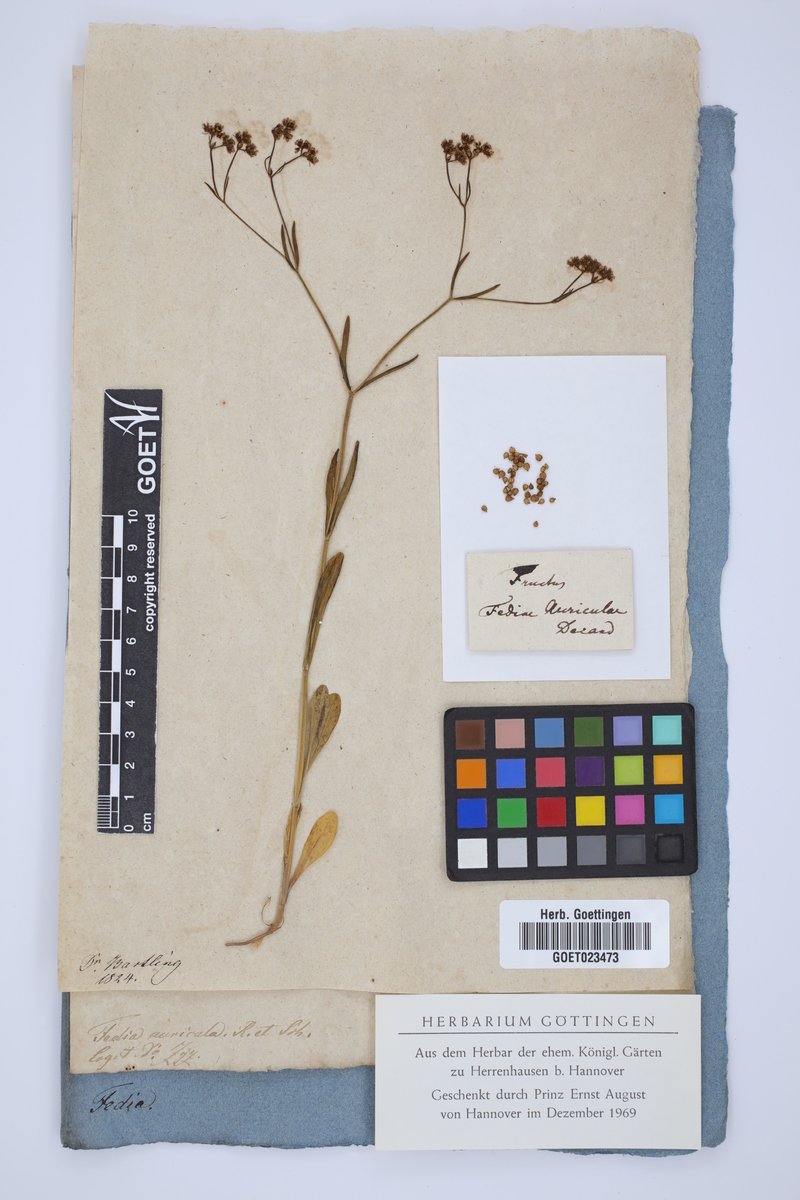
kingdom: Plantae
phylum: Tracheophyta
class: Magnoliopsida
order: Dipsacales
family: Caprifoliaceae
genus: Valerianella
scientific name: Valerianella
